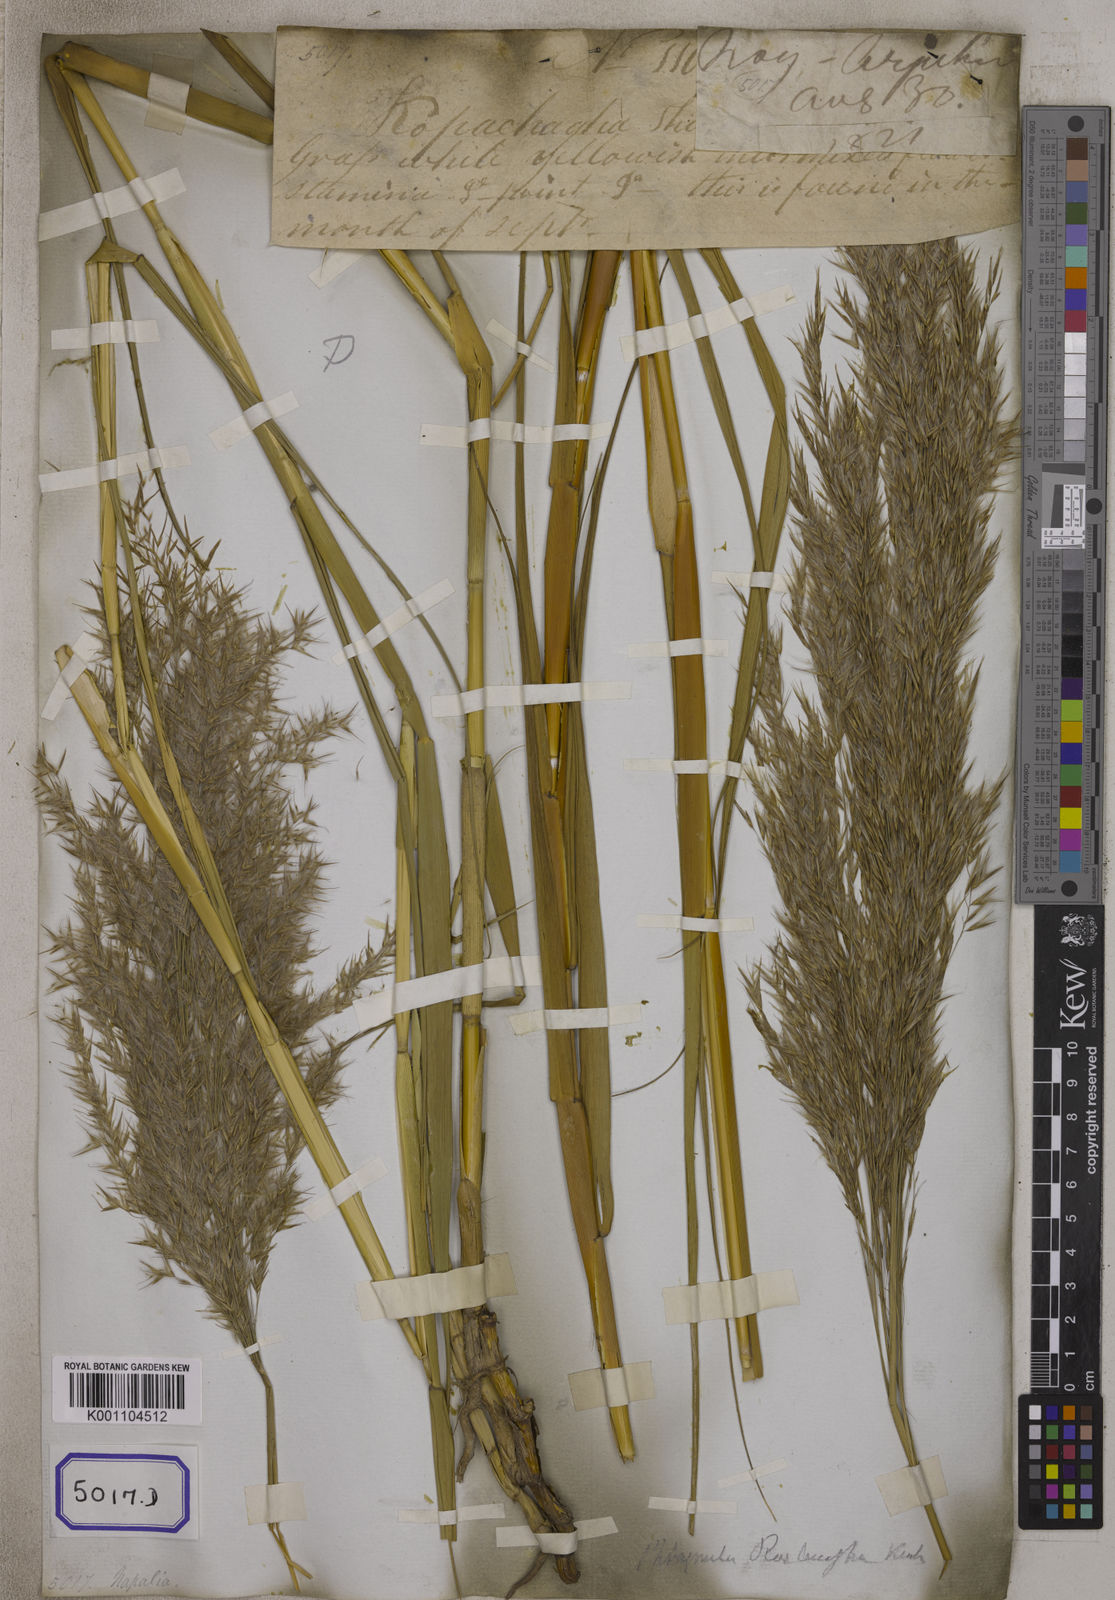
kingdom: Plantae
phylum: Tracheophyta
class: Liliopsida
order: Poales
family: Poaceae
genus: Arundo
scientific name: Arundo
